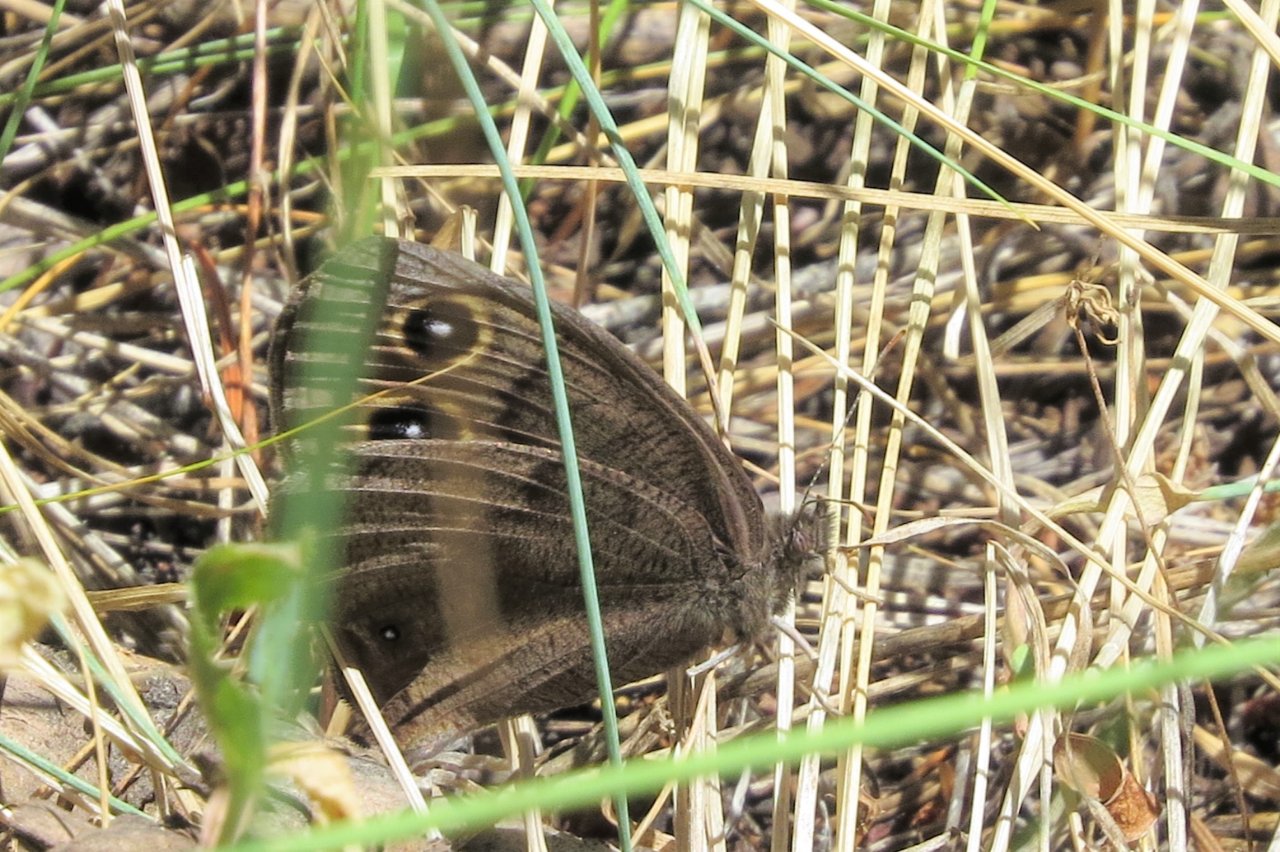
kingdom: Animalia
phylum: Arthropoda
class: Insecta
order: Lepidoptera
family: Nymphalidae
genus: Cercyonis
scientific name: Cercyonis pegala
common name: Common Wood-Nymph
